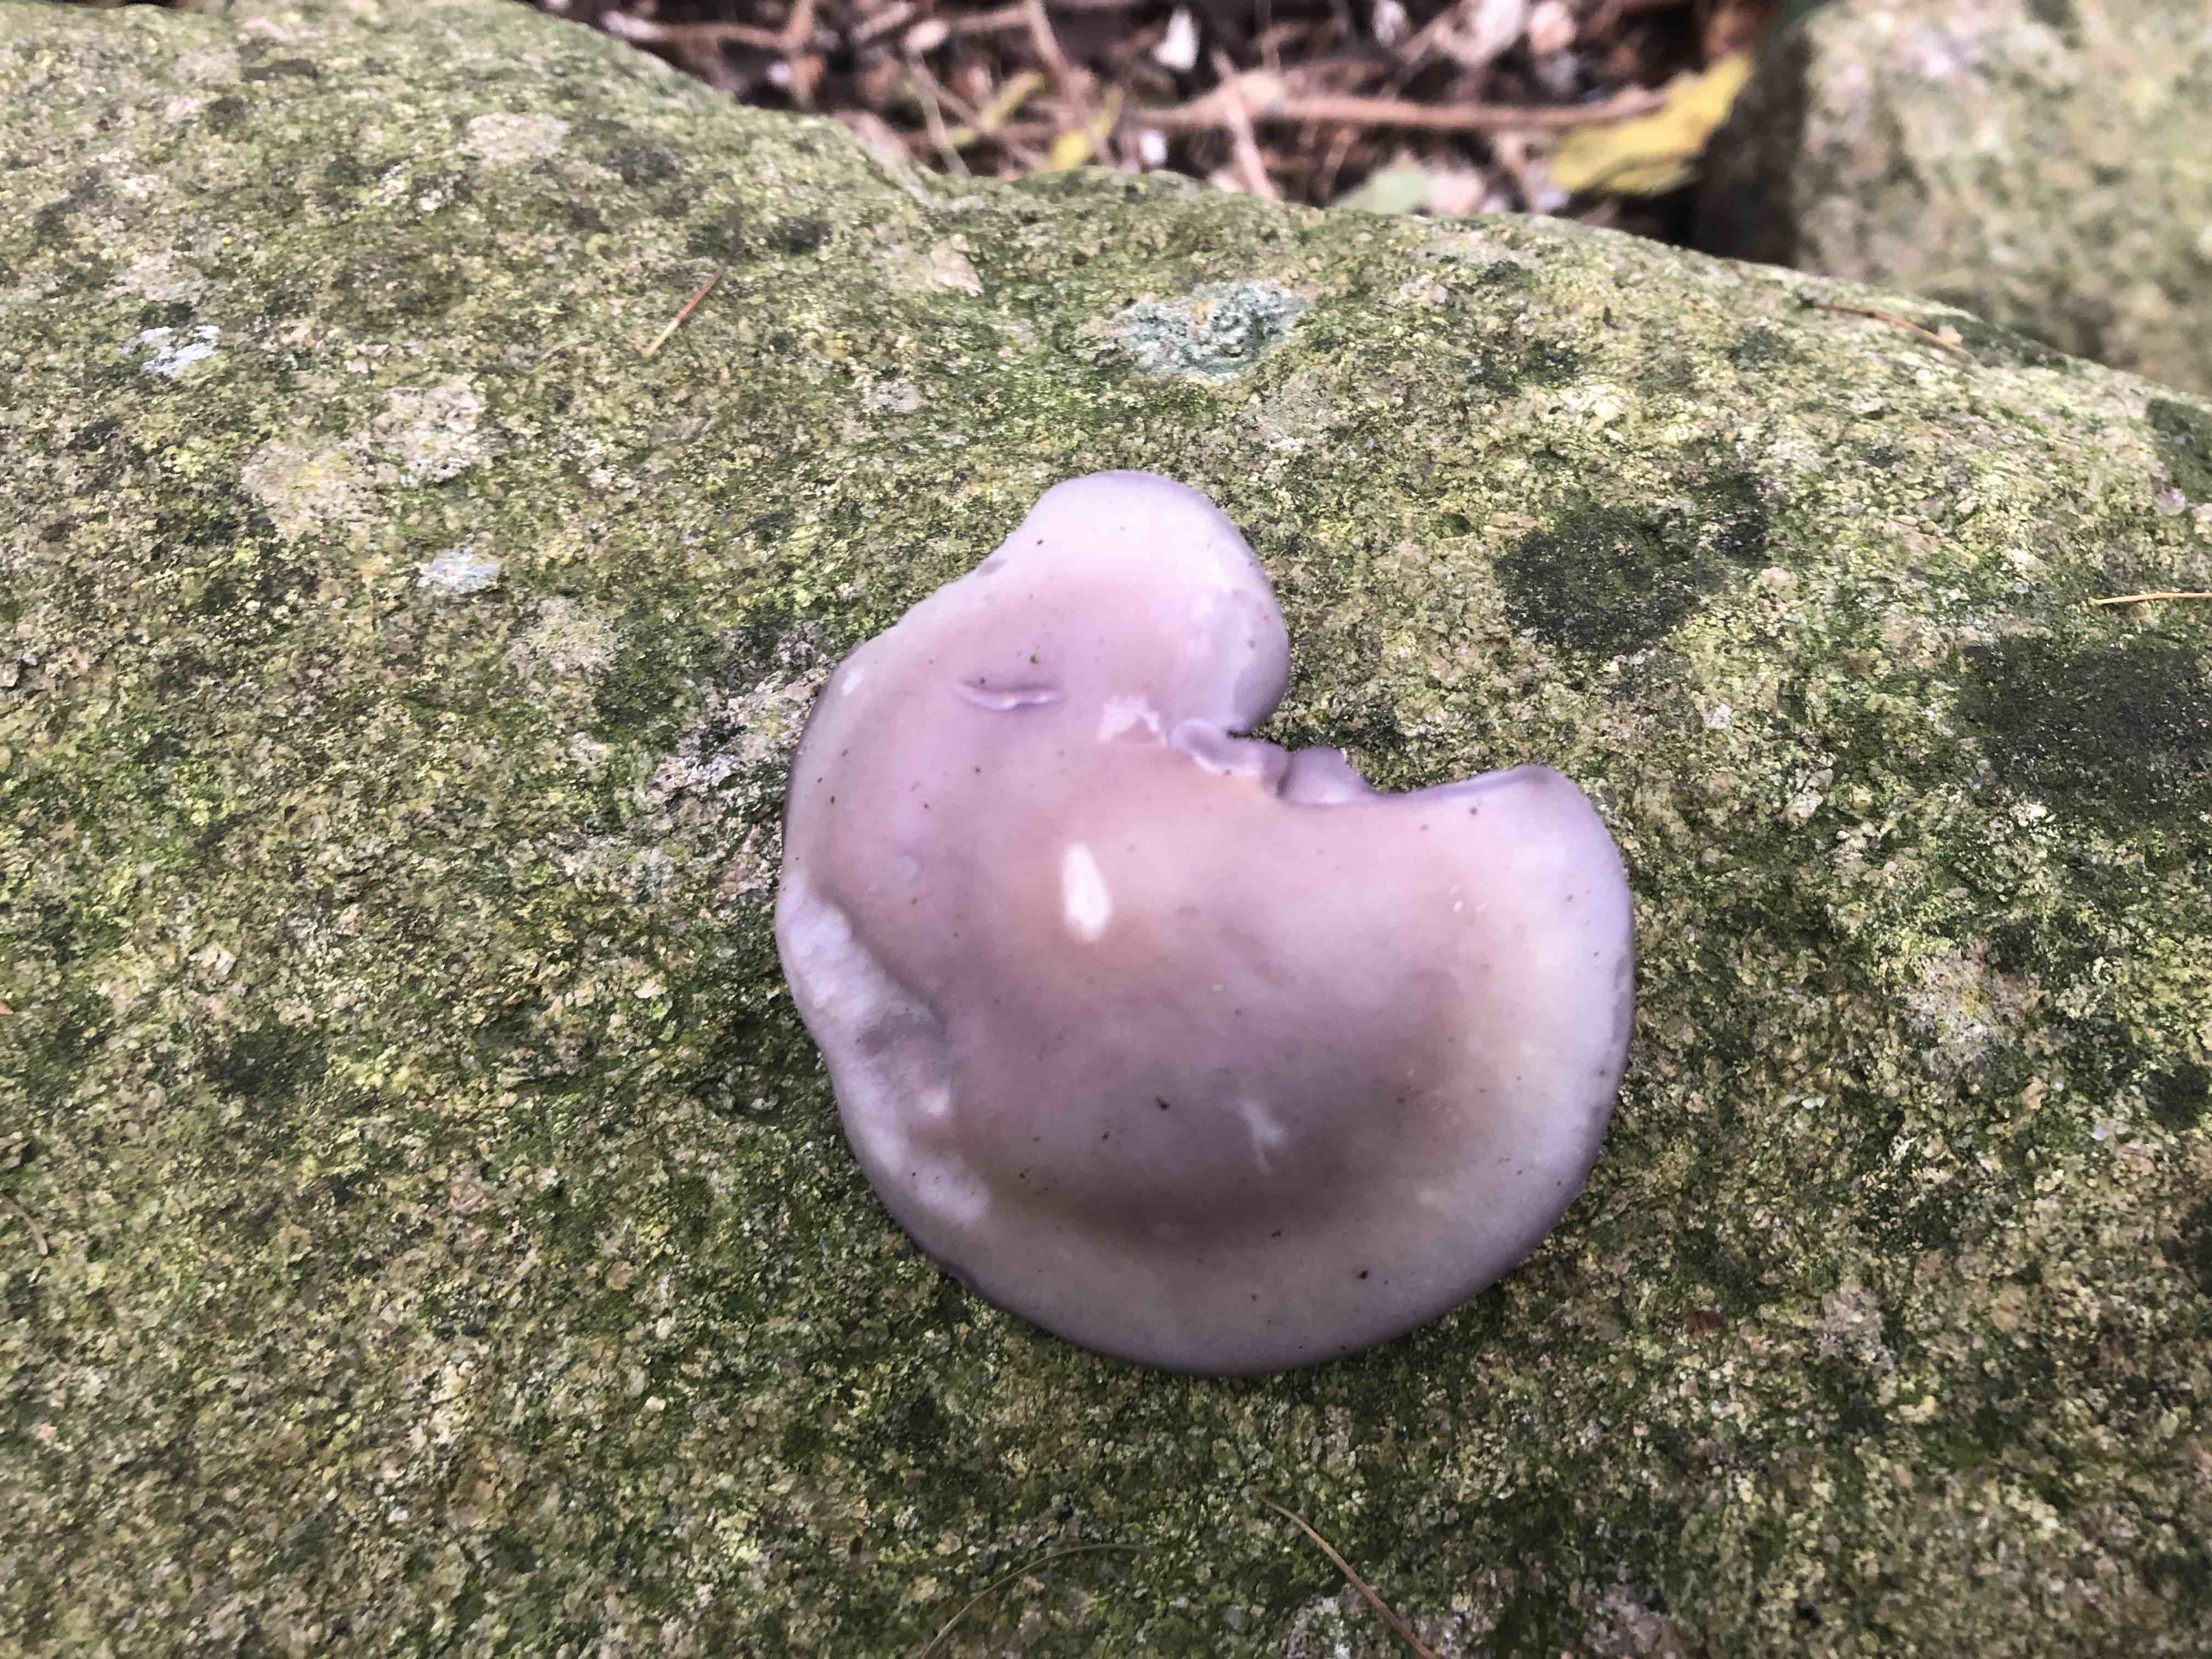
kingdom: Fungi
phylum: Basidiomycota
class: Agaricomycetes
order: Agaricales
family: Tricholomataceae
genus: Lepista
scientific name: Lepista nuda
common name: violet hekseringshat
